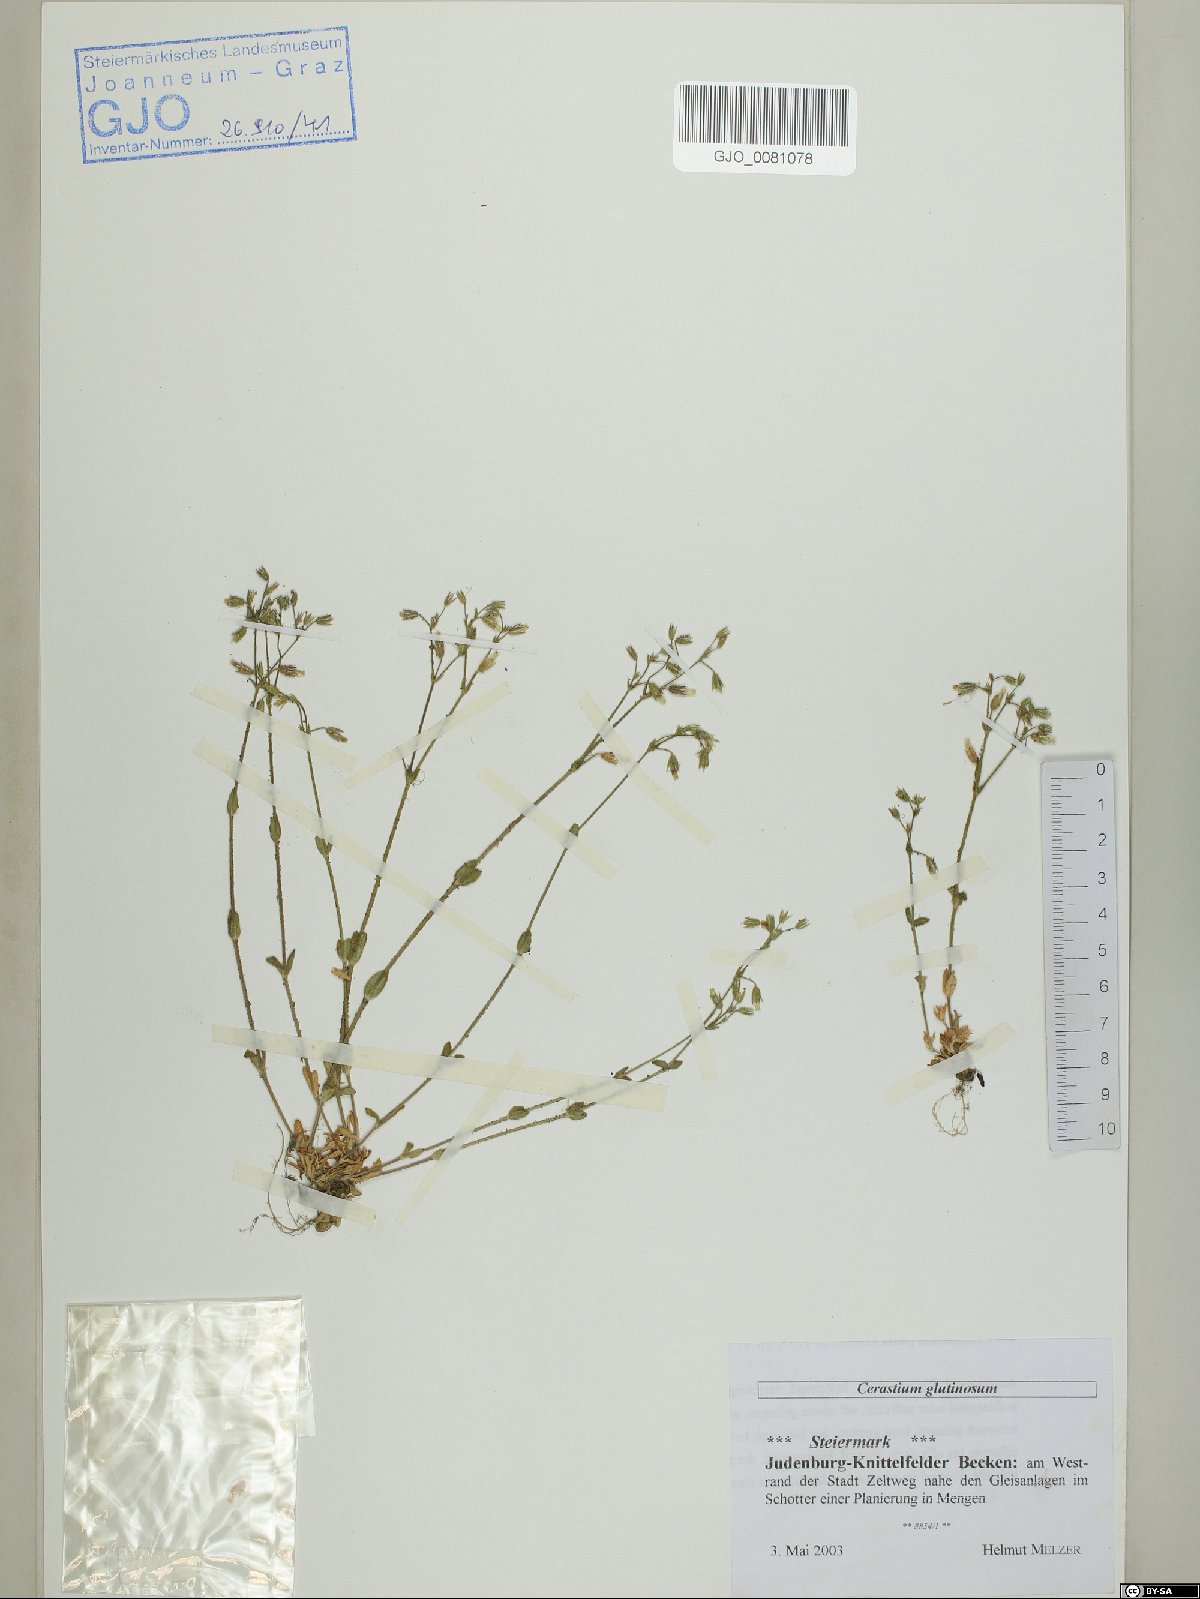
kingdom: Plantae
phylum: Tracheophyta
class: Magnoliopsida
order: Caryophyllales
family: Caryophyllaceae
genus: Cerastium
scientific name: Cerastium glutinosum
